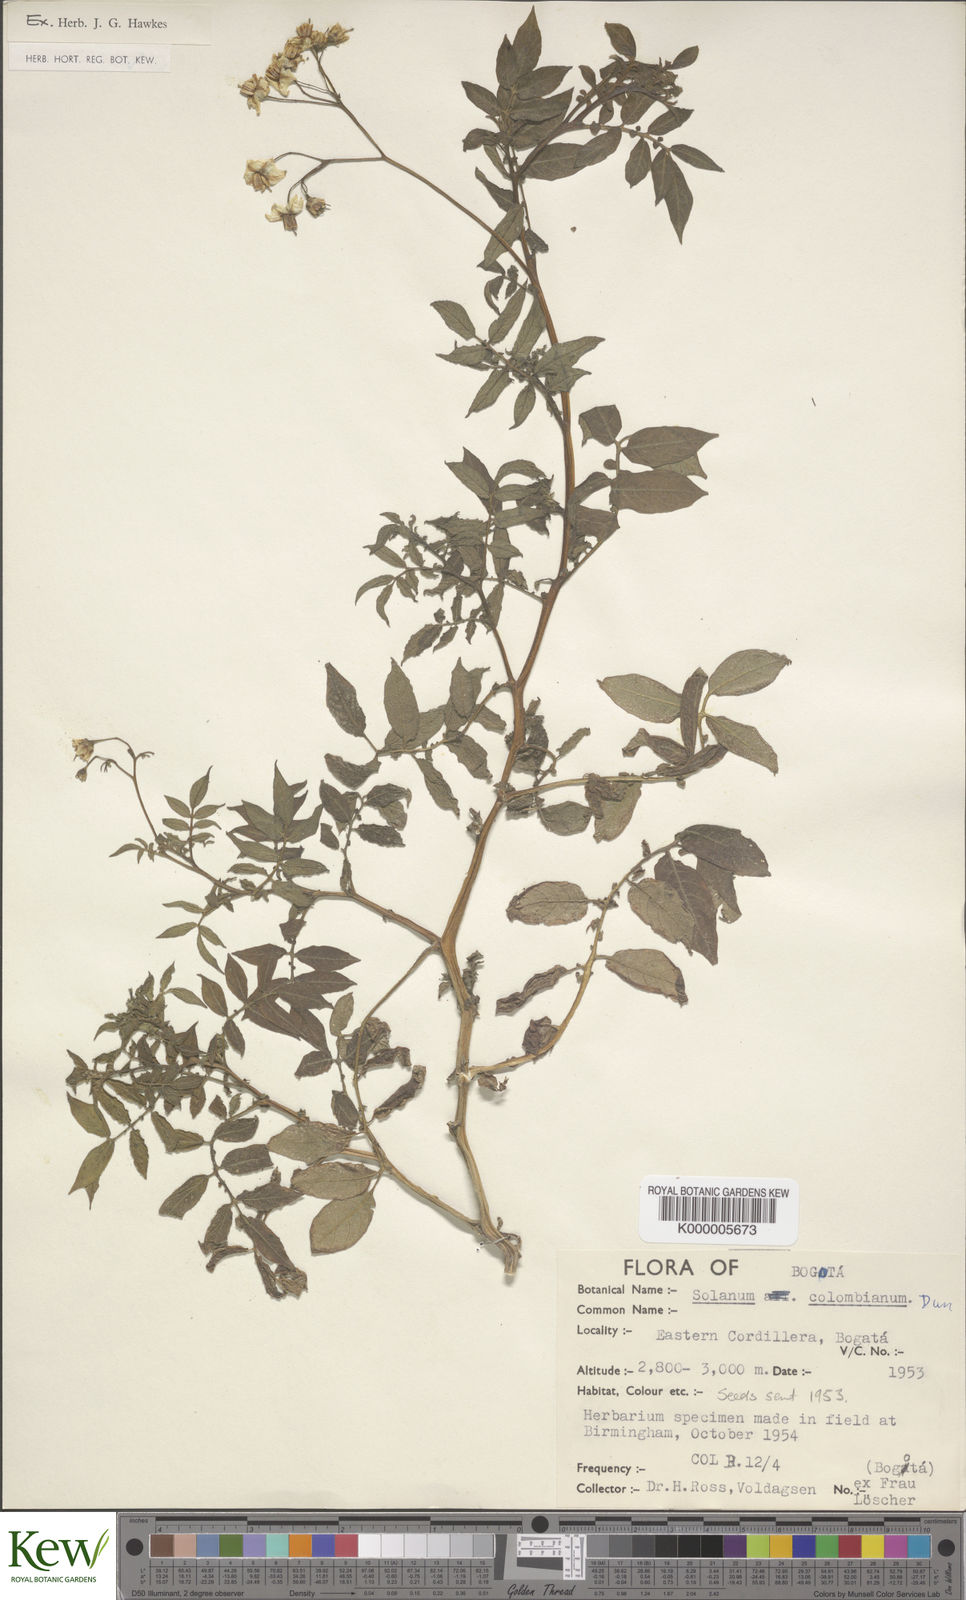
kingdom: Plantae
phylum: Tracheophyta
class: Magnoliopsida
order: Solanales
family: Solanaceae
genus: Solanum
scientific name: Solanum colombianum
